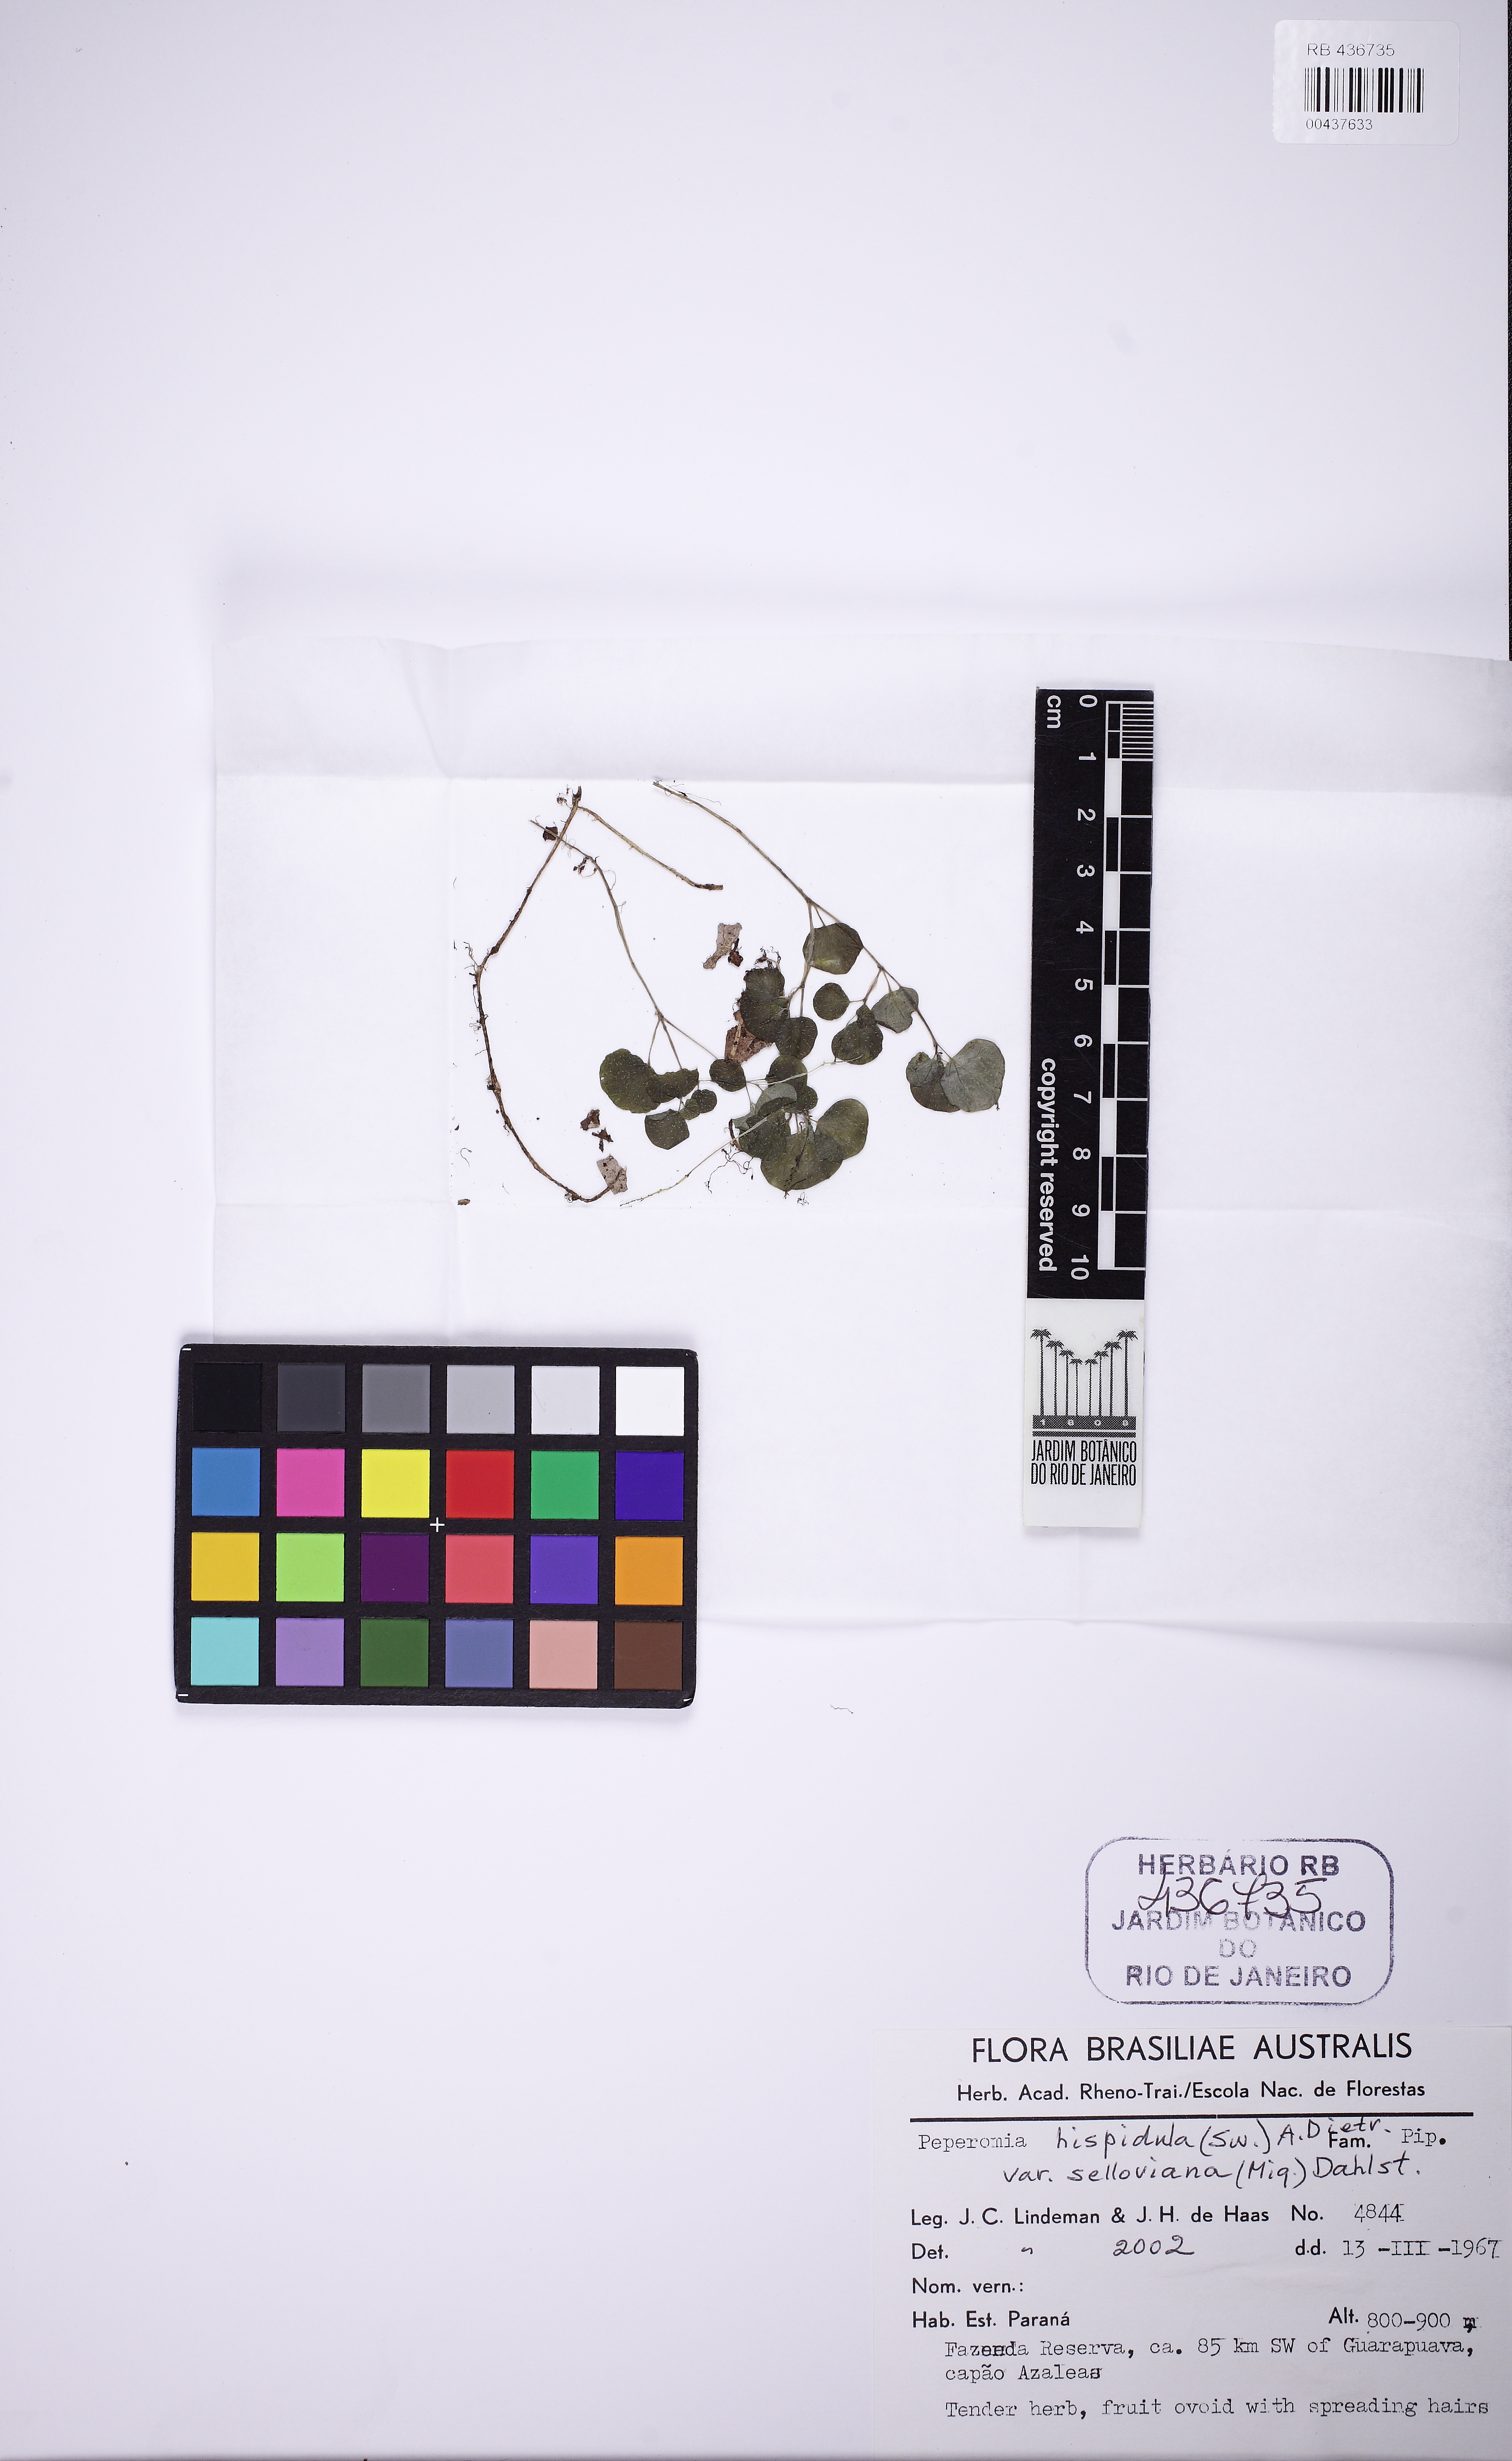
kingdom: Plantae
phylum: Tracheophyta
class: Magnoliopsida
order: Piperales
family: Piperaceae
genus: Peperomia
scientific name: Peperomia hispidula
